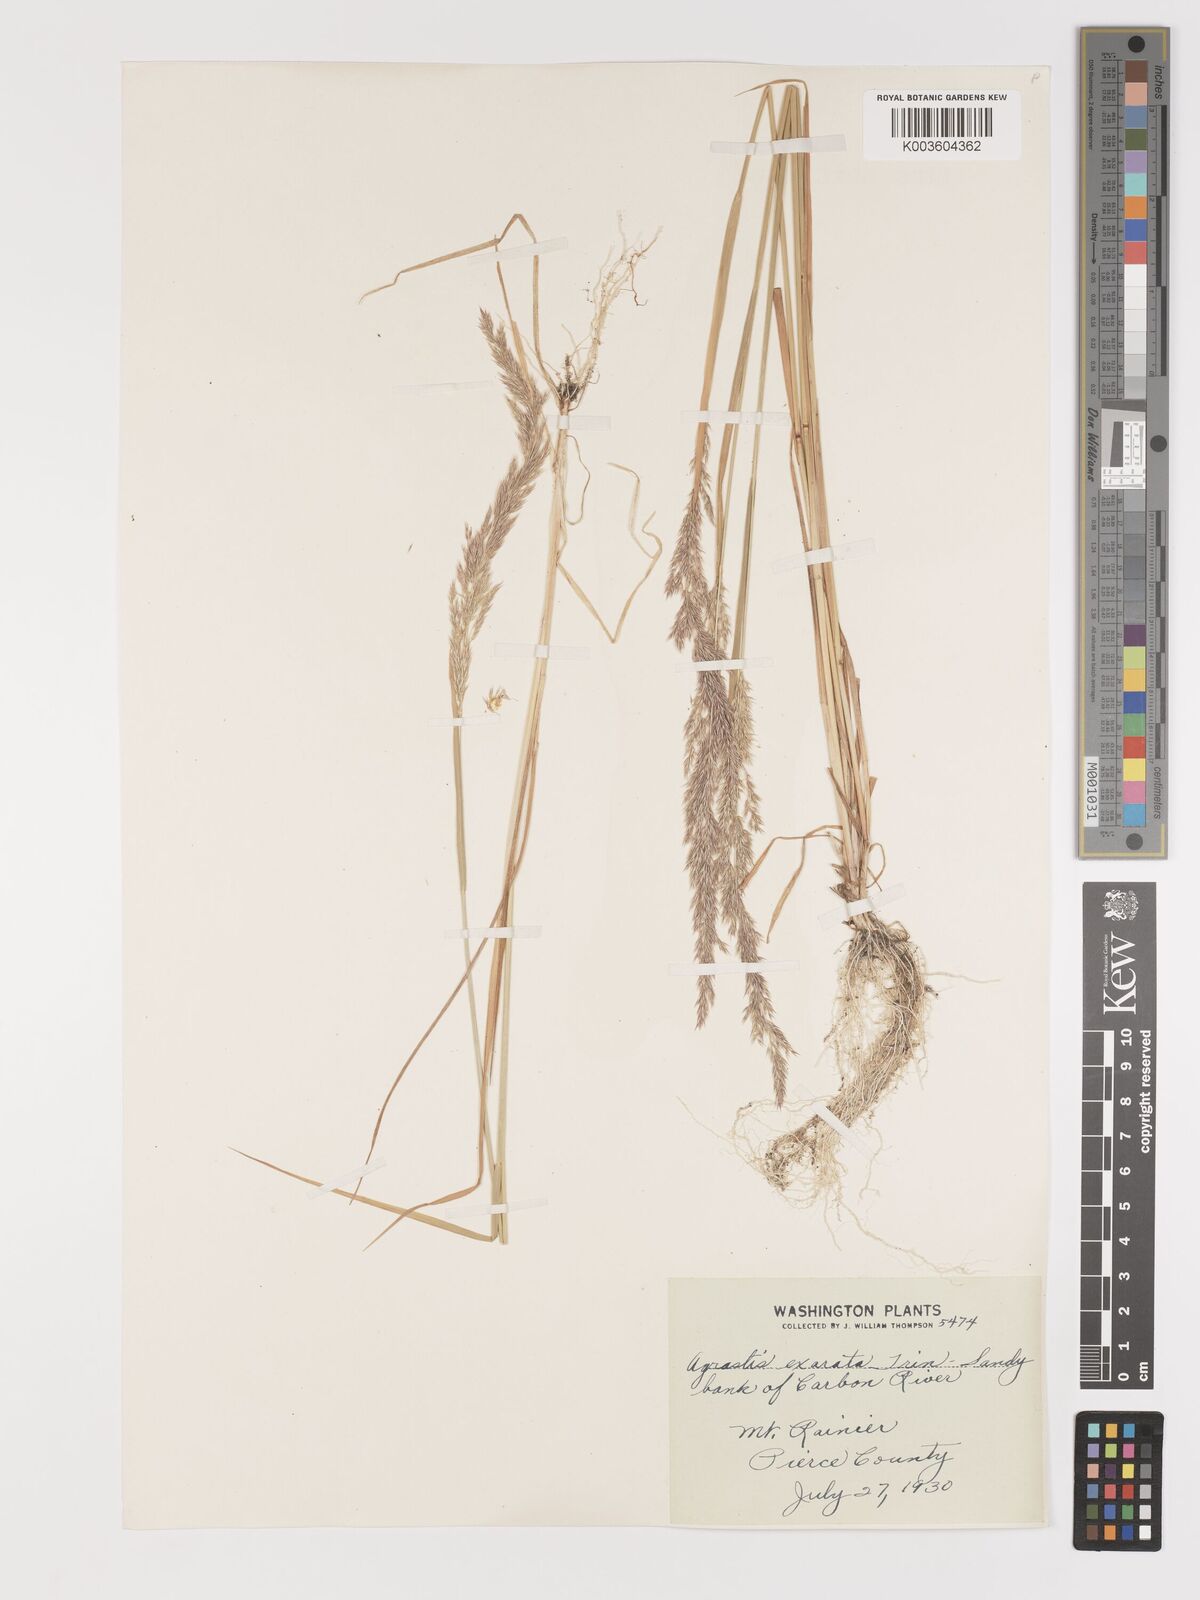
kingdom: Plantae
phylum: Tracheophyta
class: Liliopsida
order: Poales
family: Poaceae
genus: Agrostis
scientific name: Agrostis exarata
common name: Spike bent
